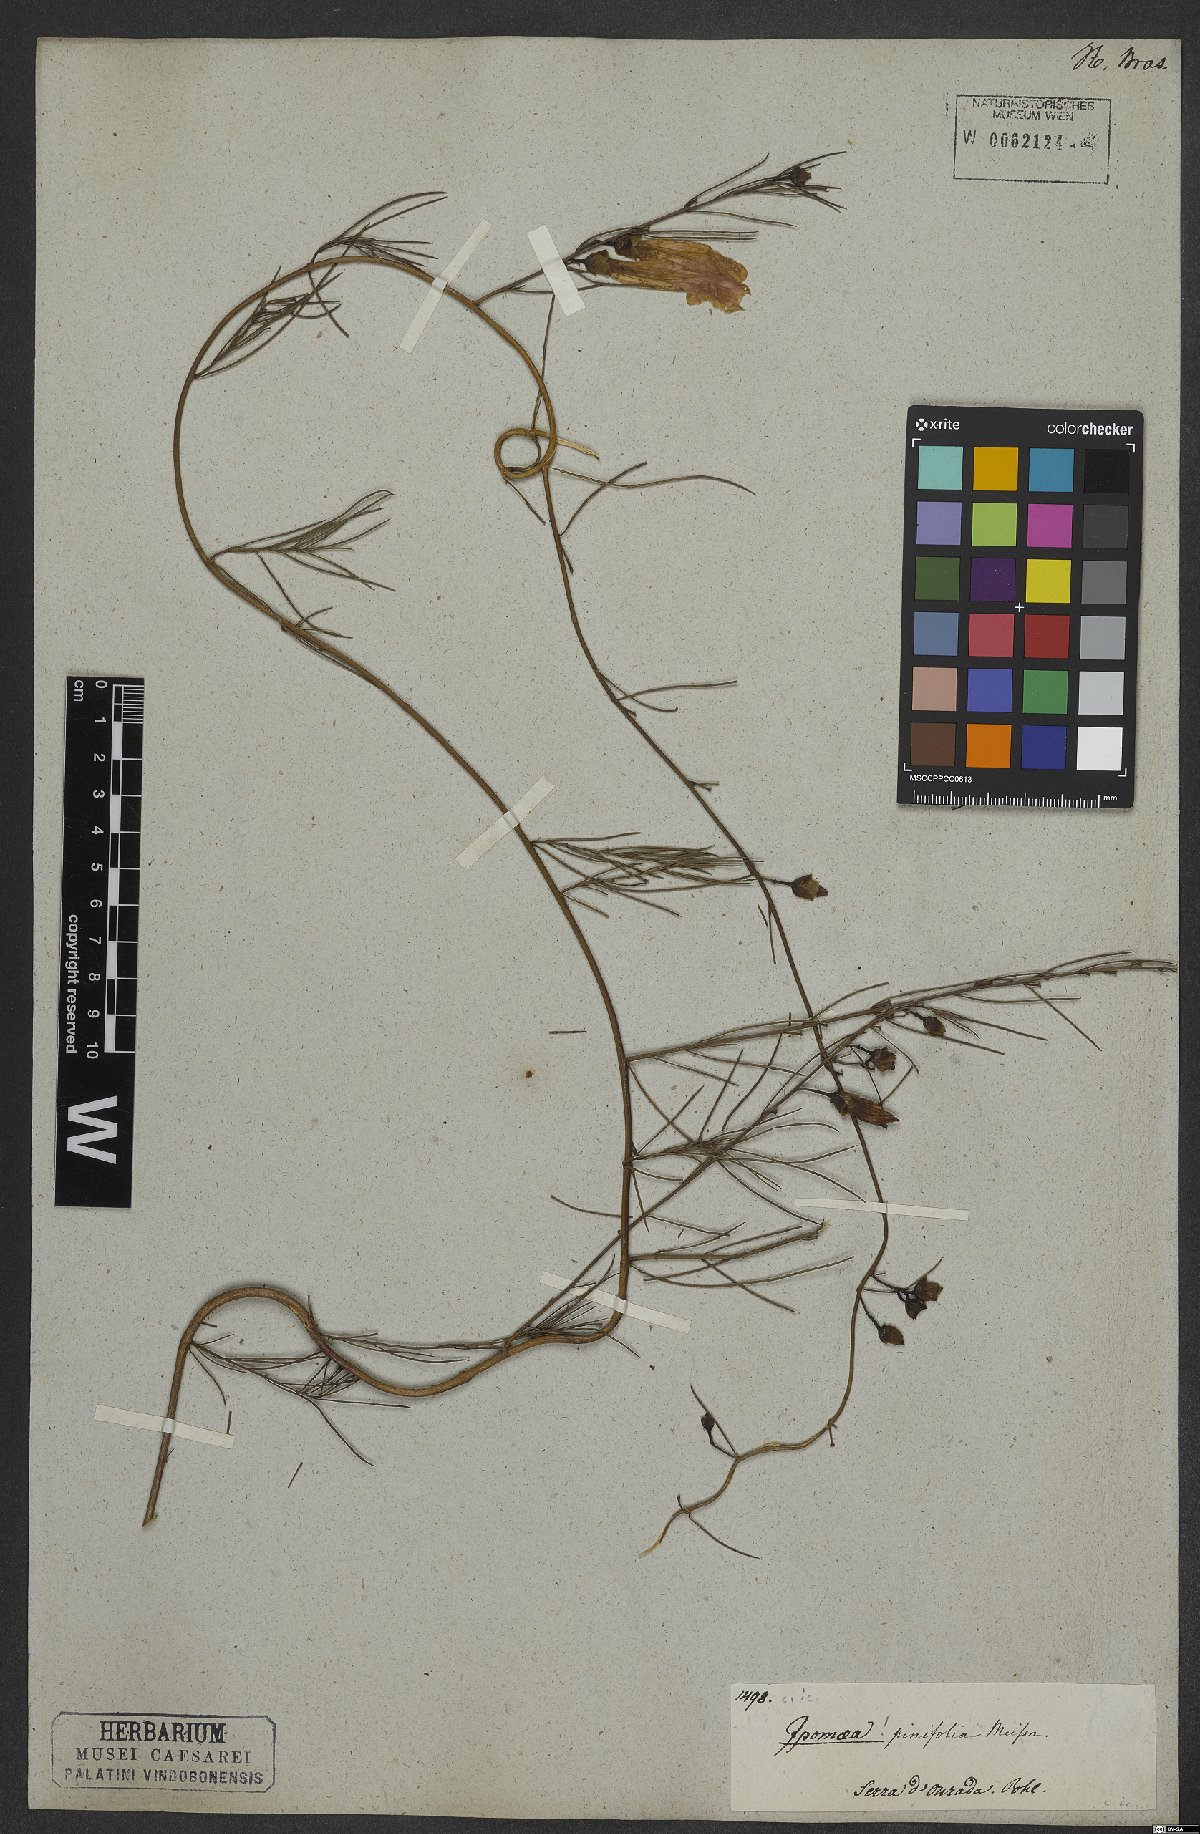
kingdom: Plantae
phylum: Tracheophyta
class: Magnoliopsida
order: Solanales
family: Convolvulaceae
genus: Ipomoea
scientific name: Ipomoea pinifolia
